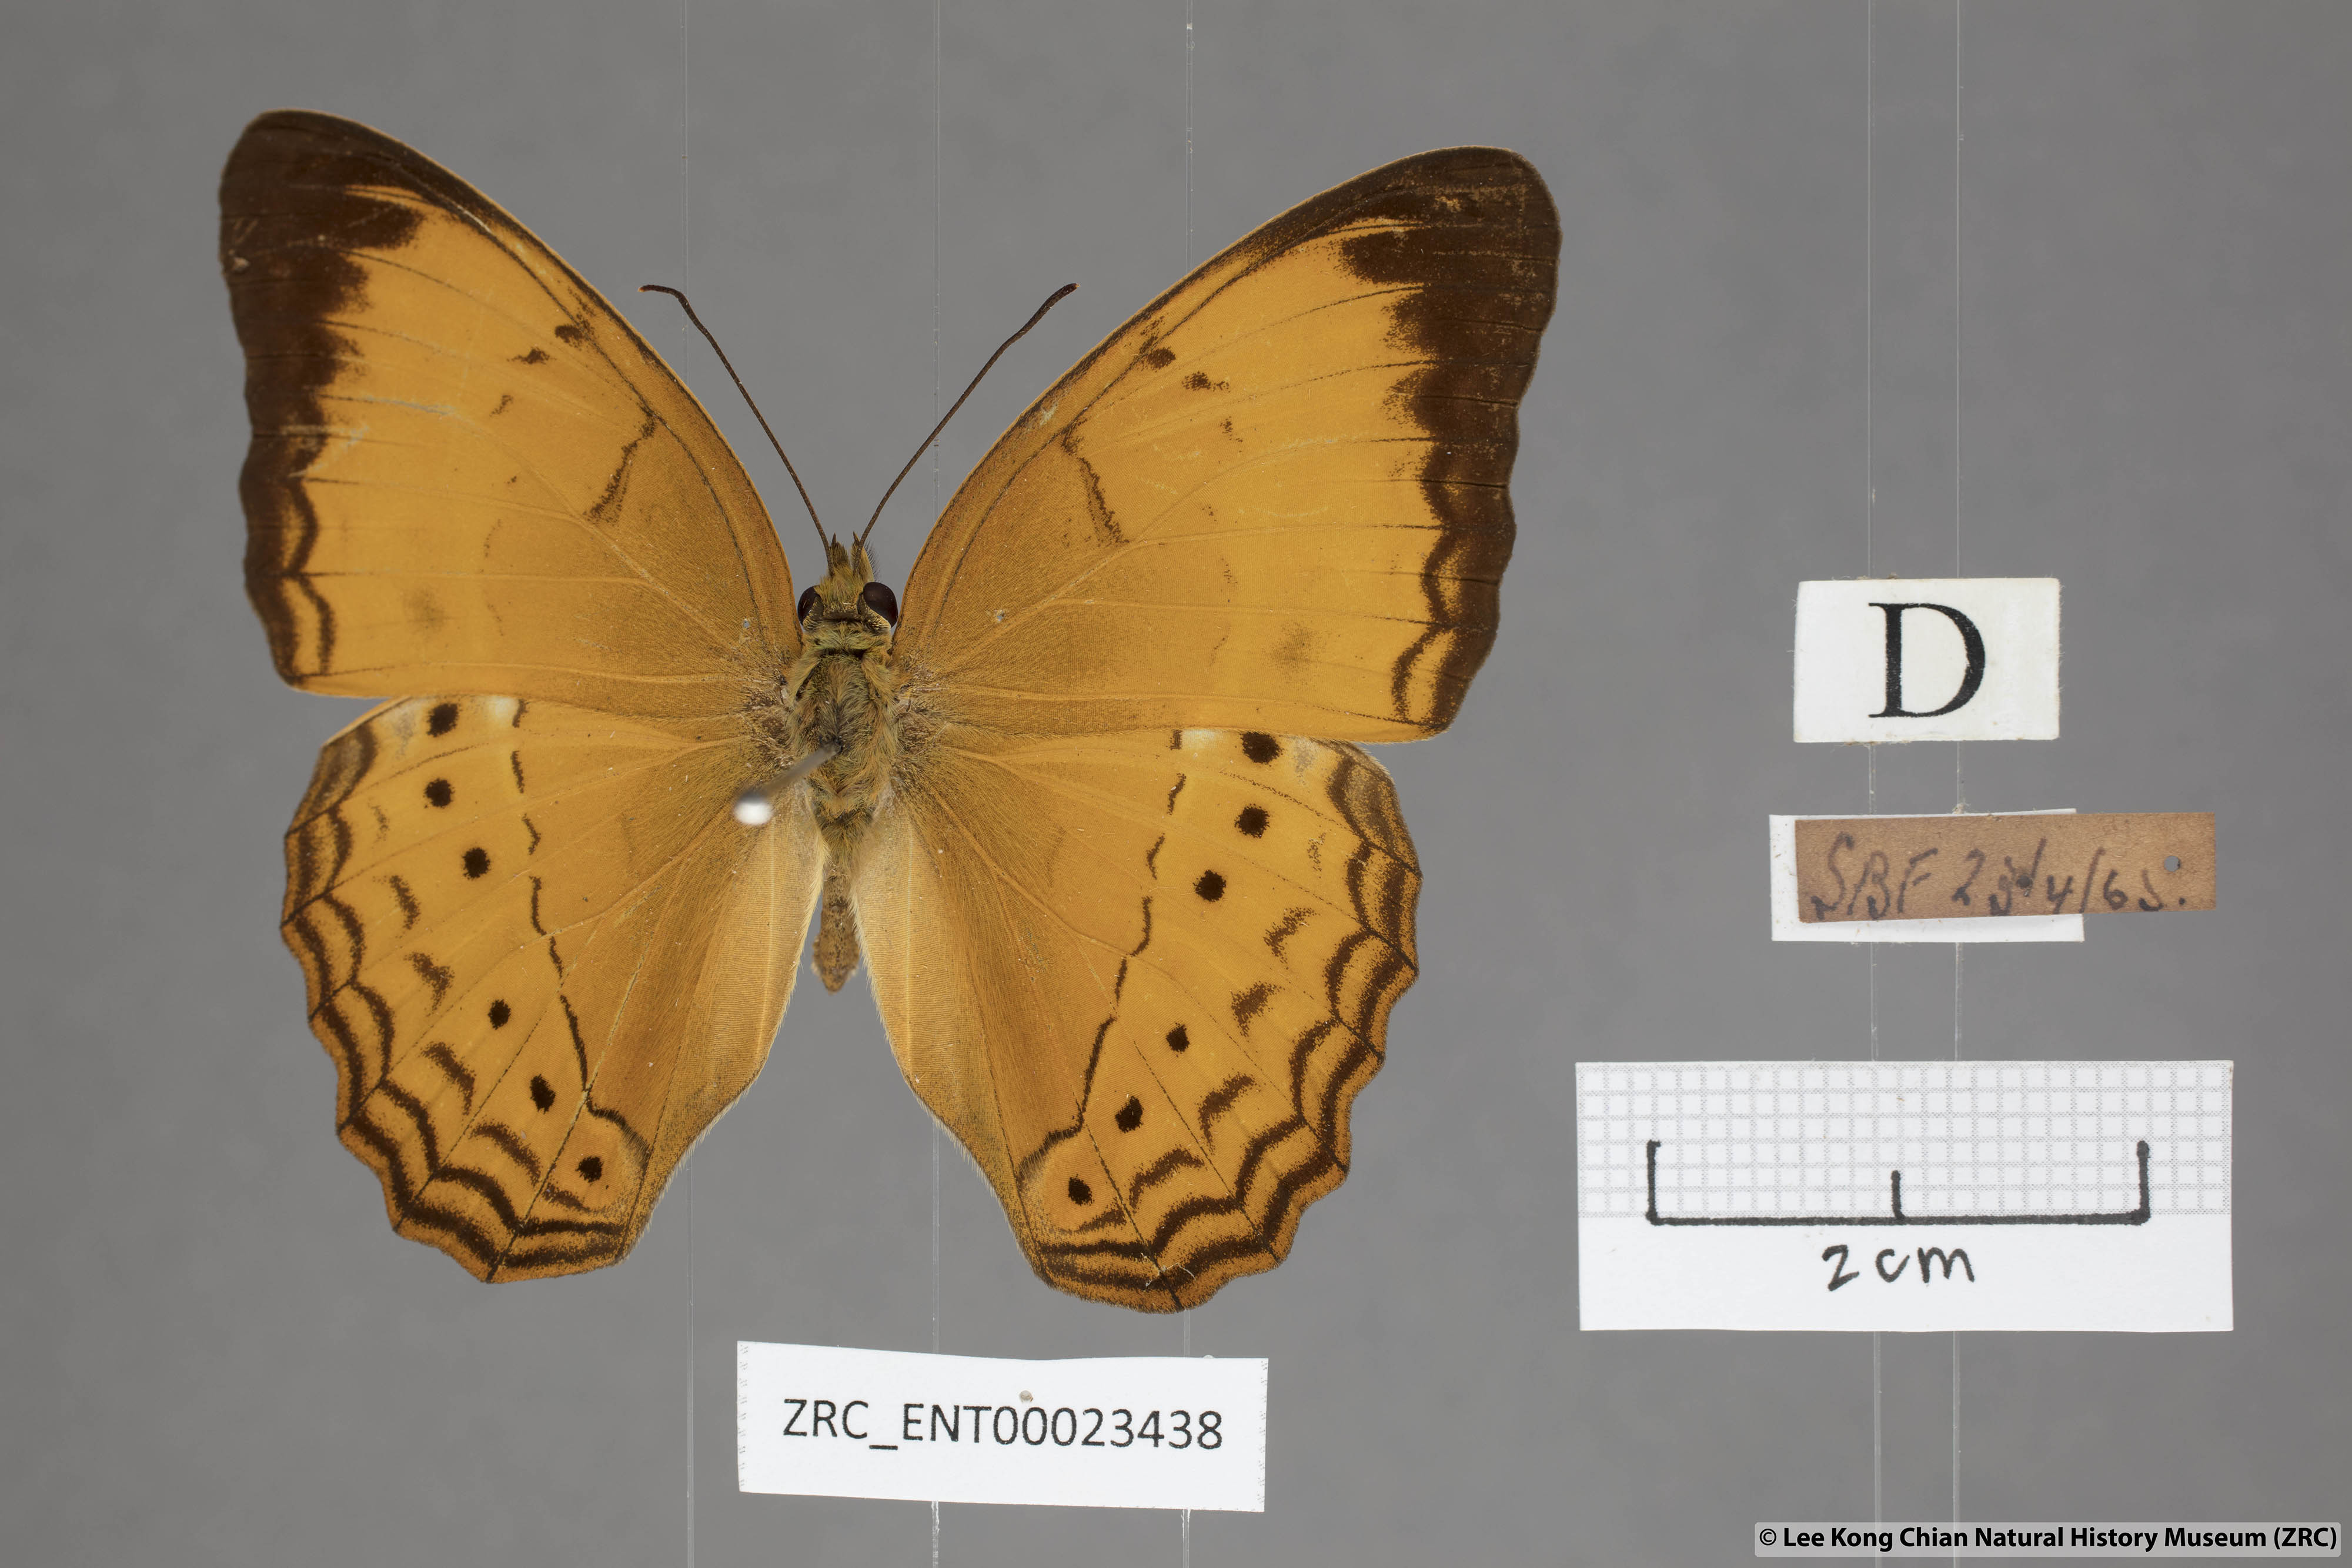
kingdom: Animalia
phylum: Arthropoda
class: Insecta
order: Lepidoptera
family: Nymphalidae
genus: Cirrochroa
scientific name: Cirrochroa malaya
